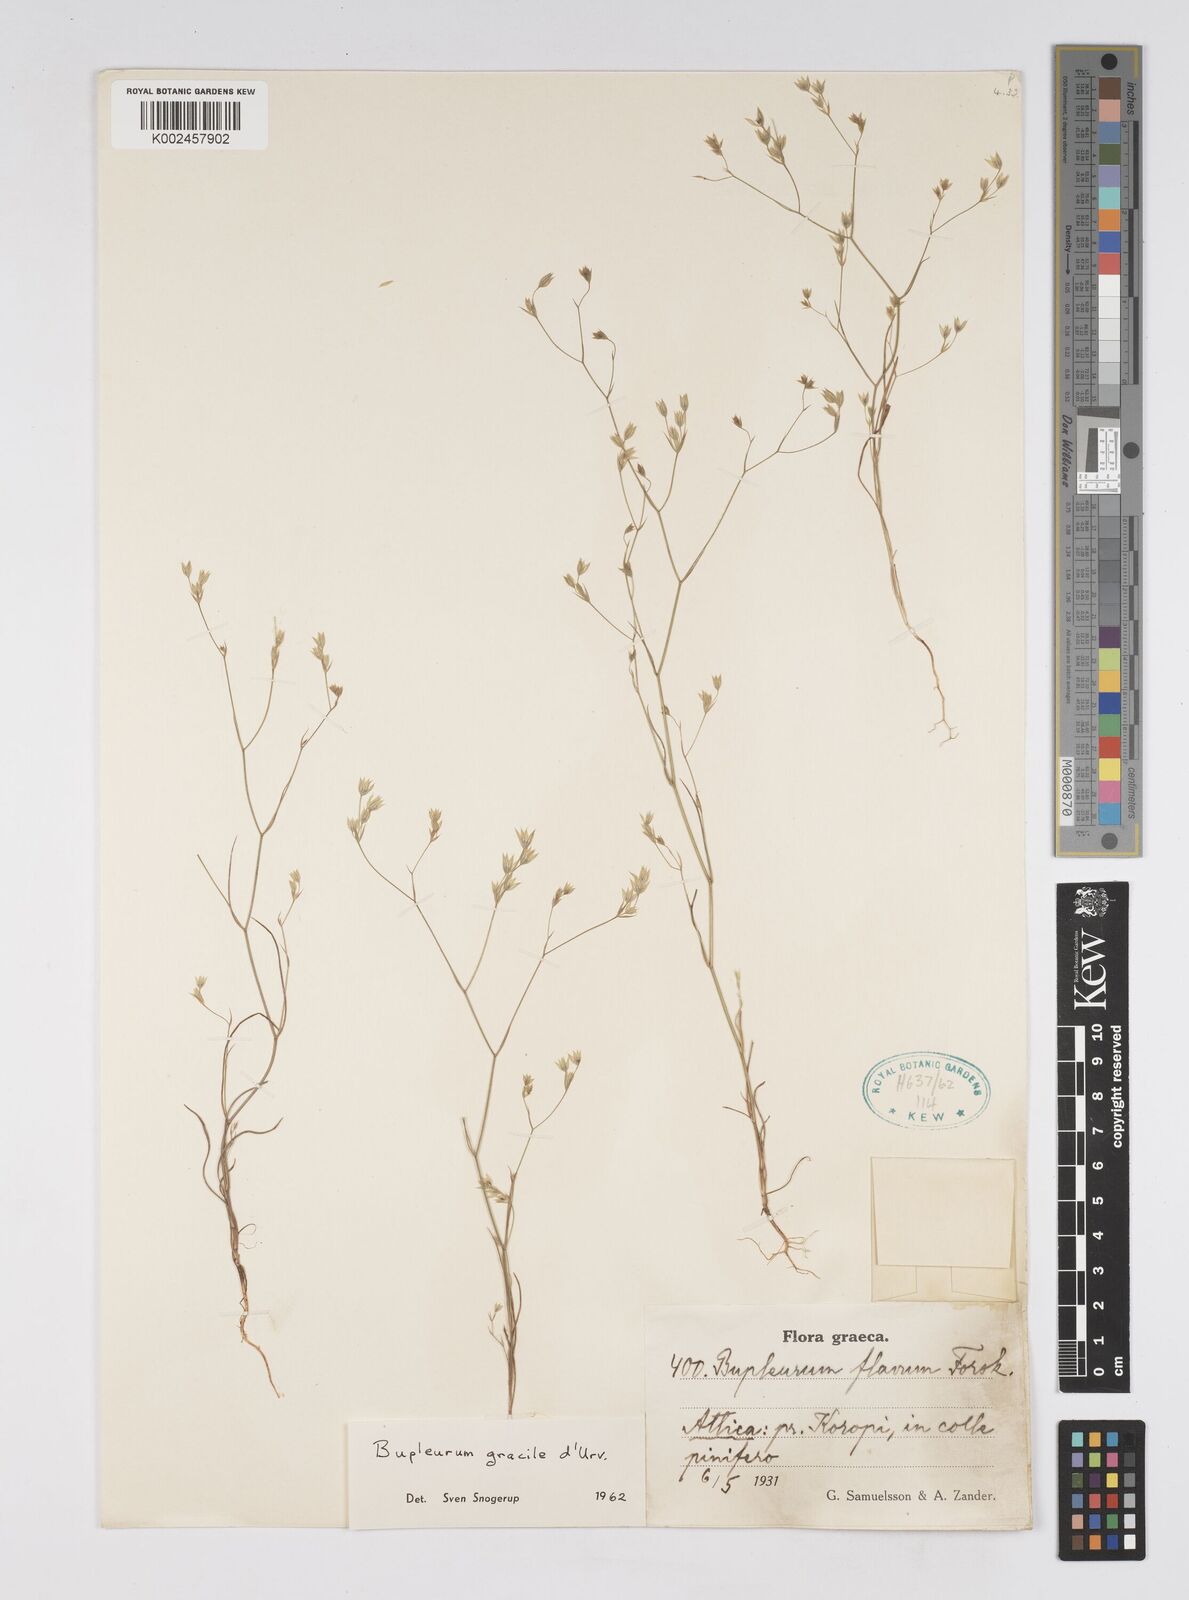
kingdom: Plantae
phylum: Tracheophyta
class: Magnoliopsida
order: Apiales
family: Apiaceae
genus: Bupleurum
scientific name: Bupleurum gracile
